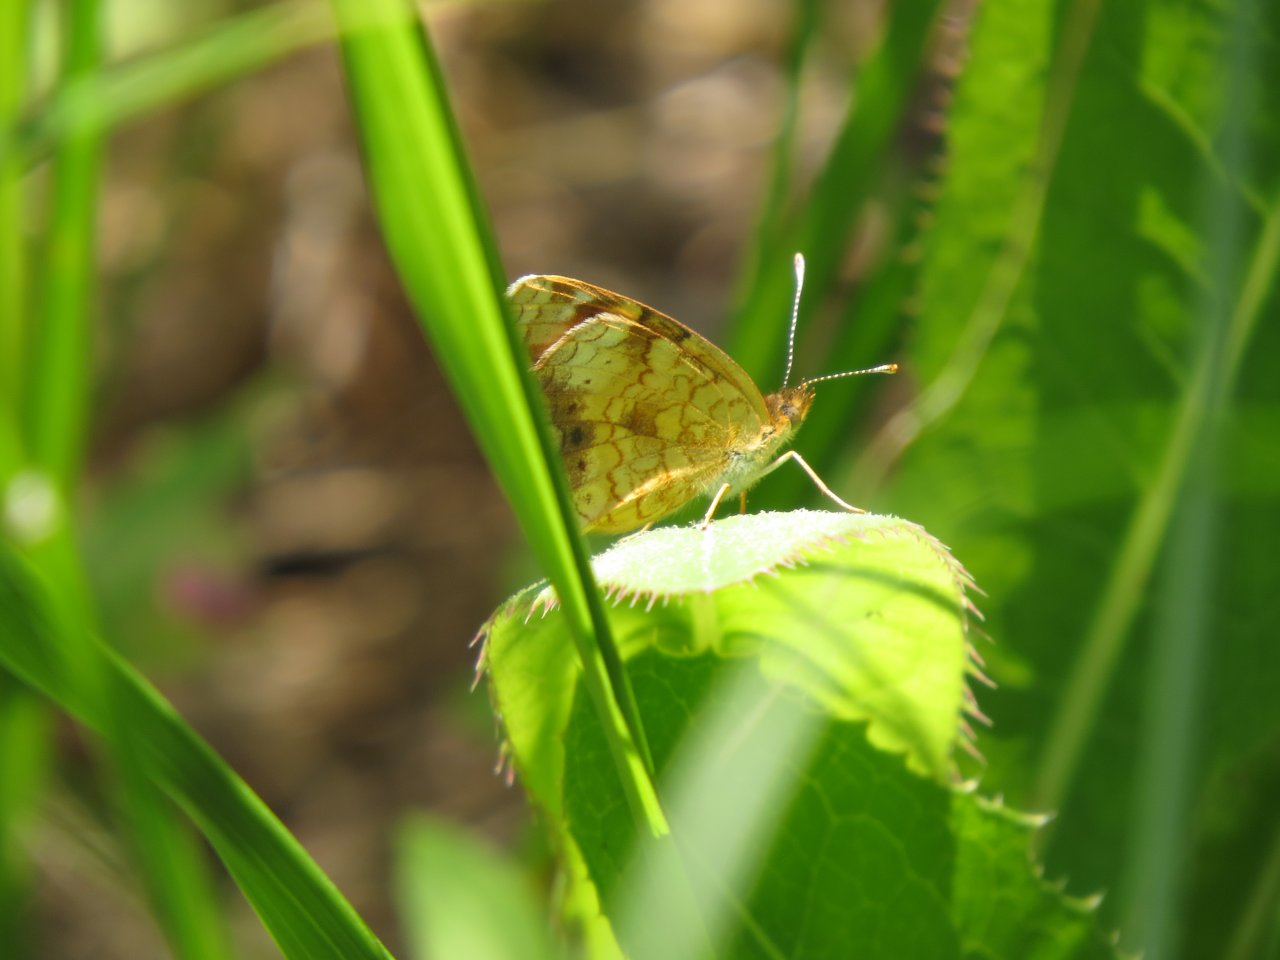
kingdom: Animalia
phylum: Arthropoda
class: Insecta
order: Lepidoptera
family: Nymphalidae
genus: Phyciodes
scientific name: Phyciodes tharos
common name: Northern Crescent
